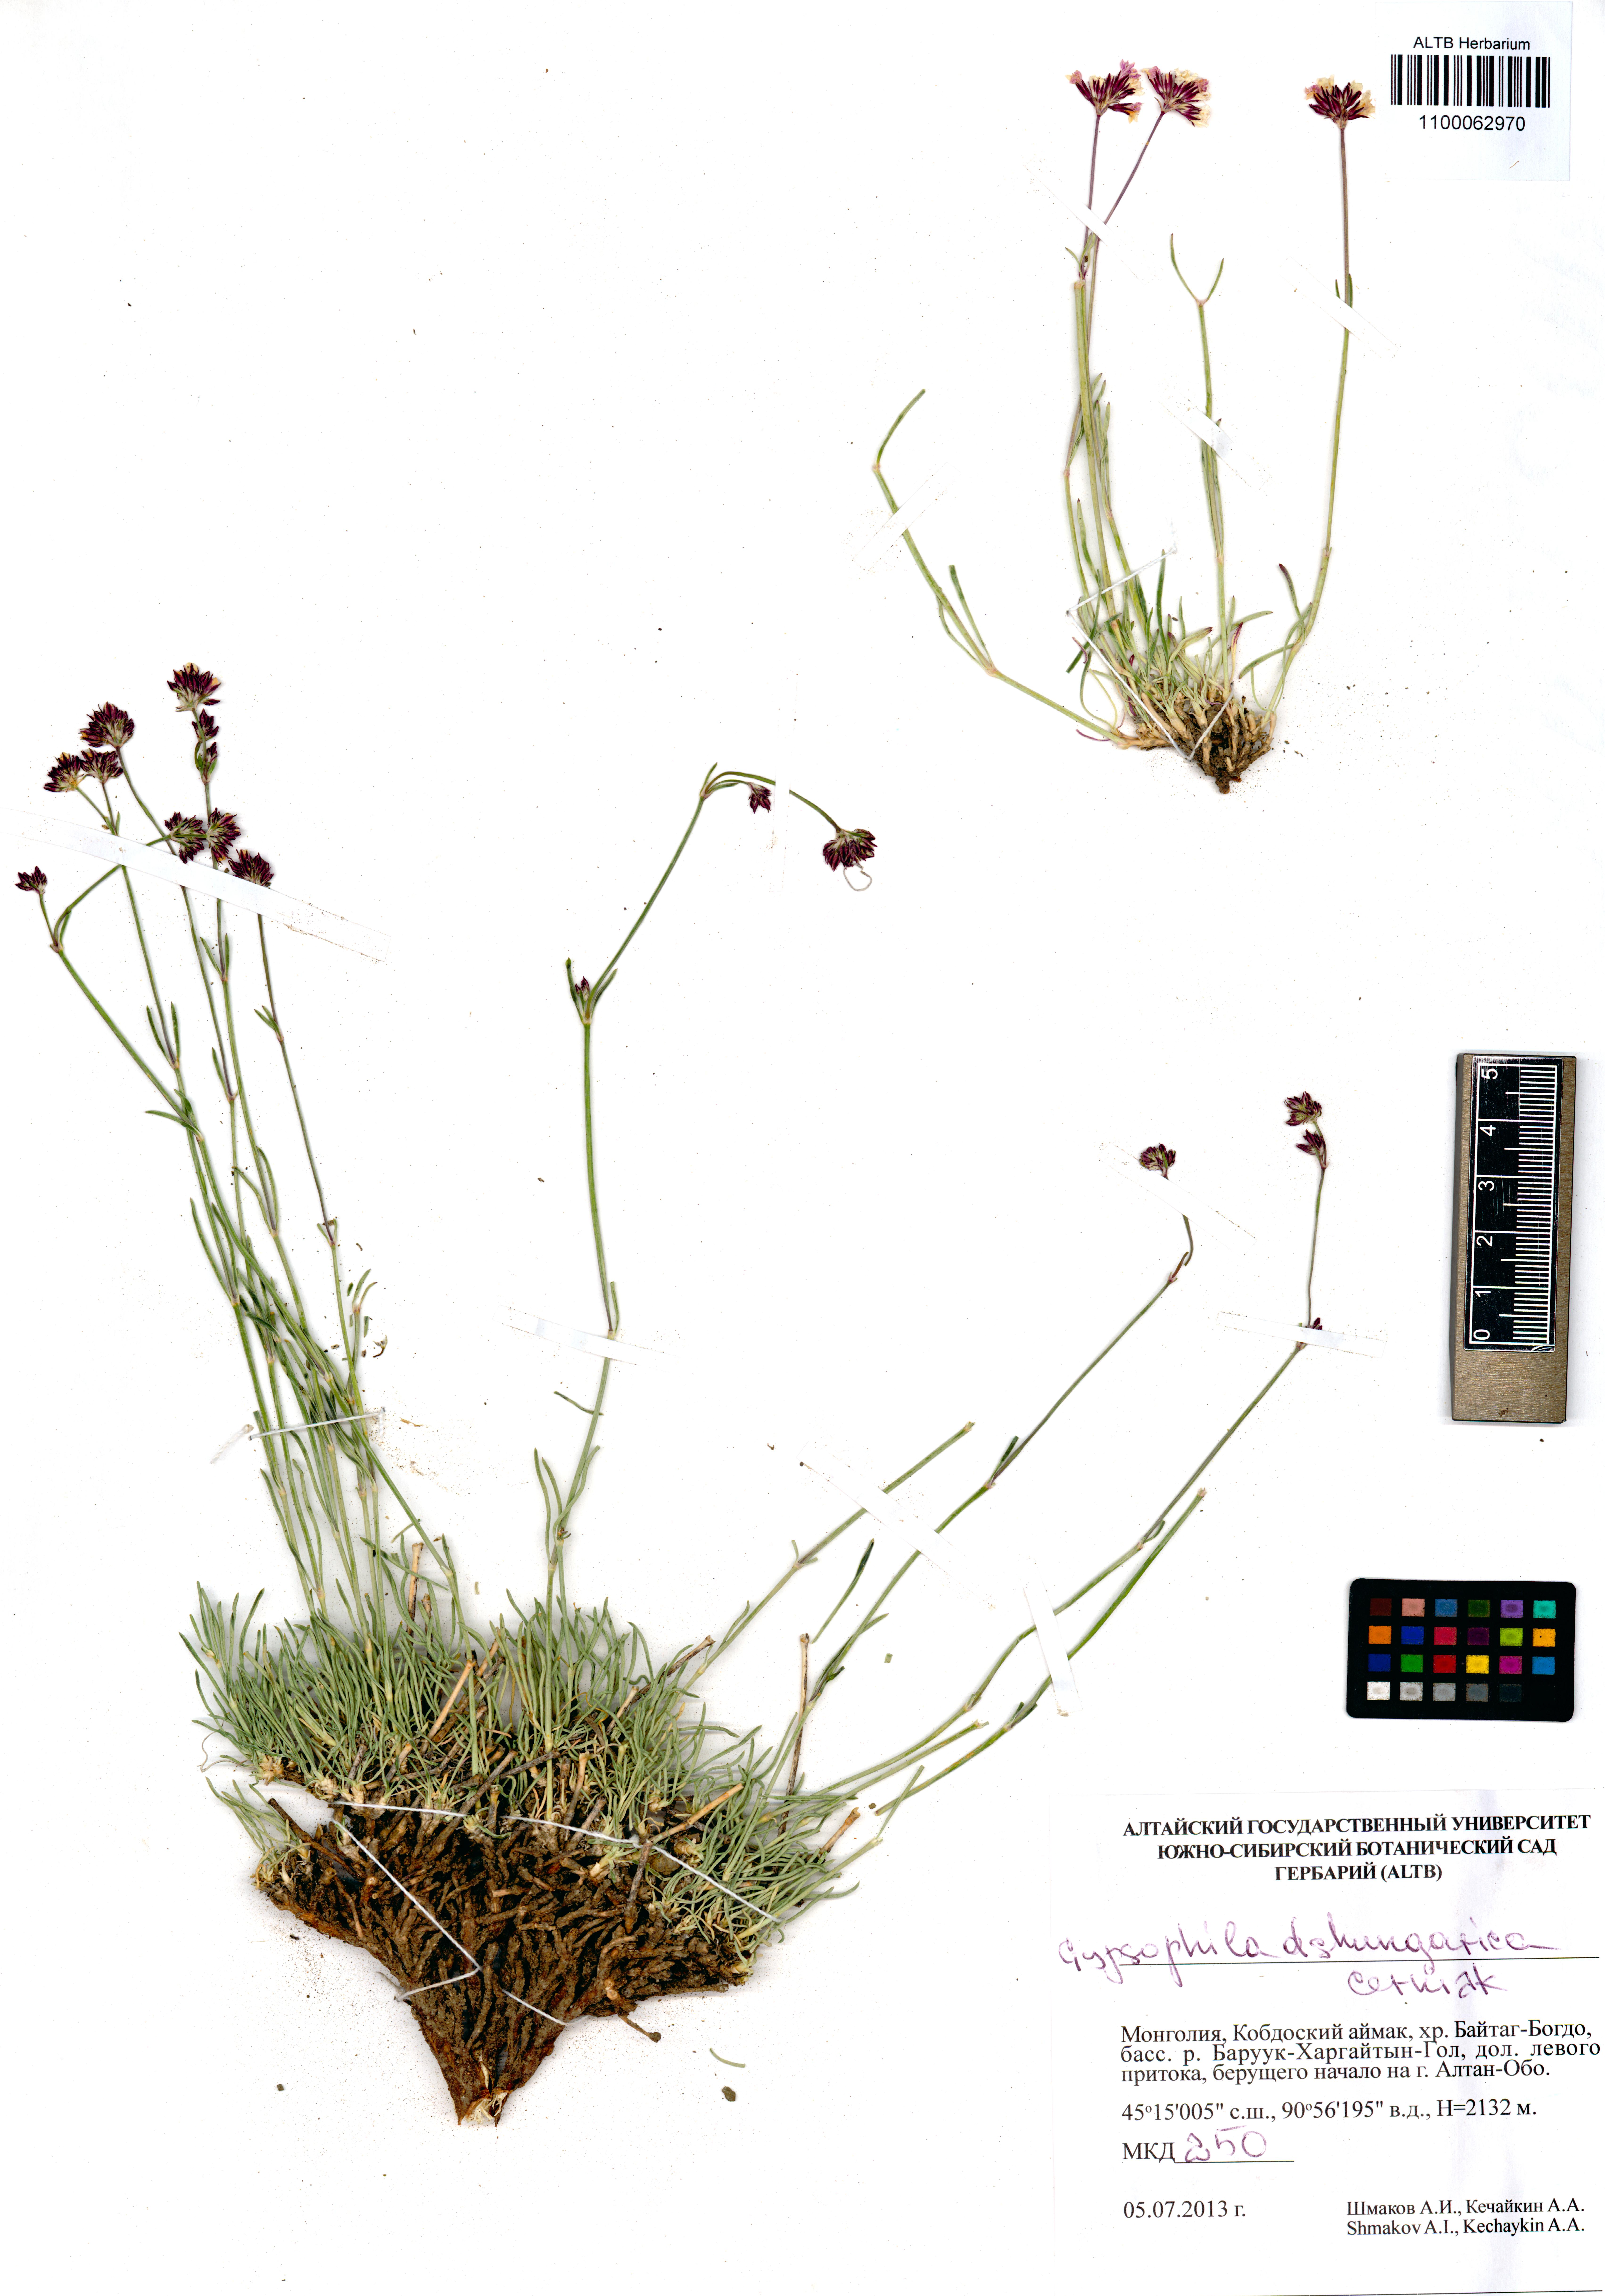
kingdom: Plantae
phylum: Tracheophyta
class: Magnoliopsida
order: Caryophyllales
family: Caryophyllaceae
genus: Gypsophila
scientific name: Gypsophila capituliflora
